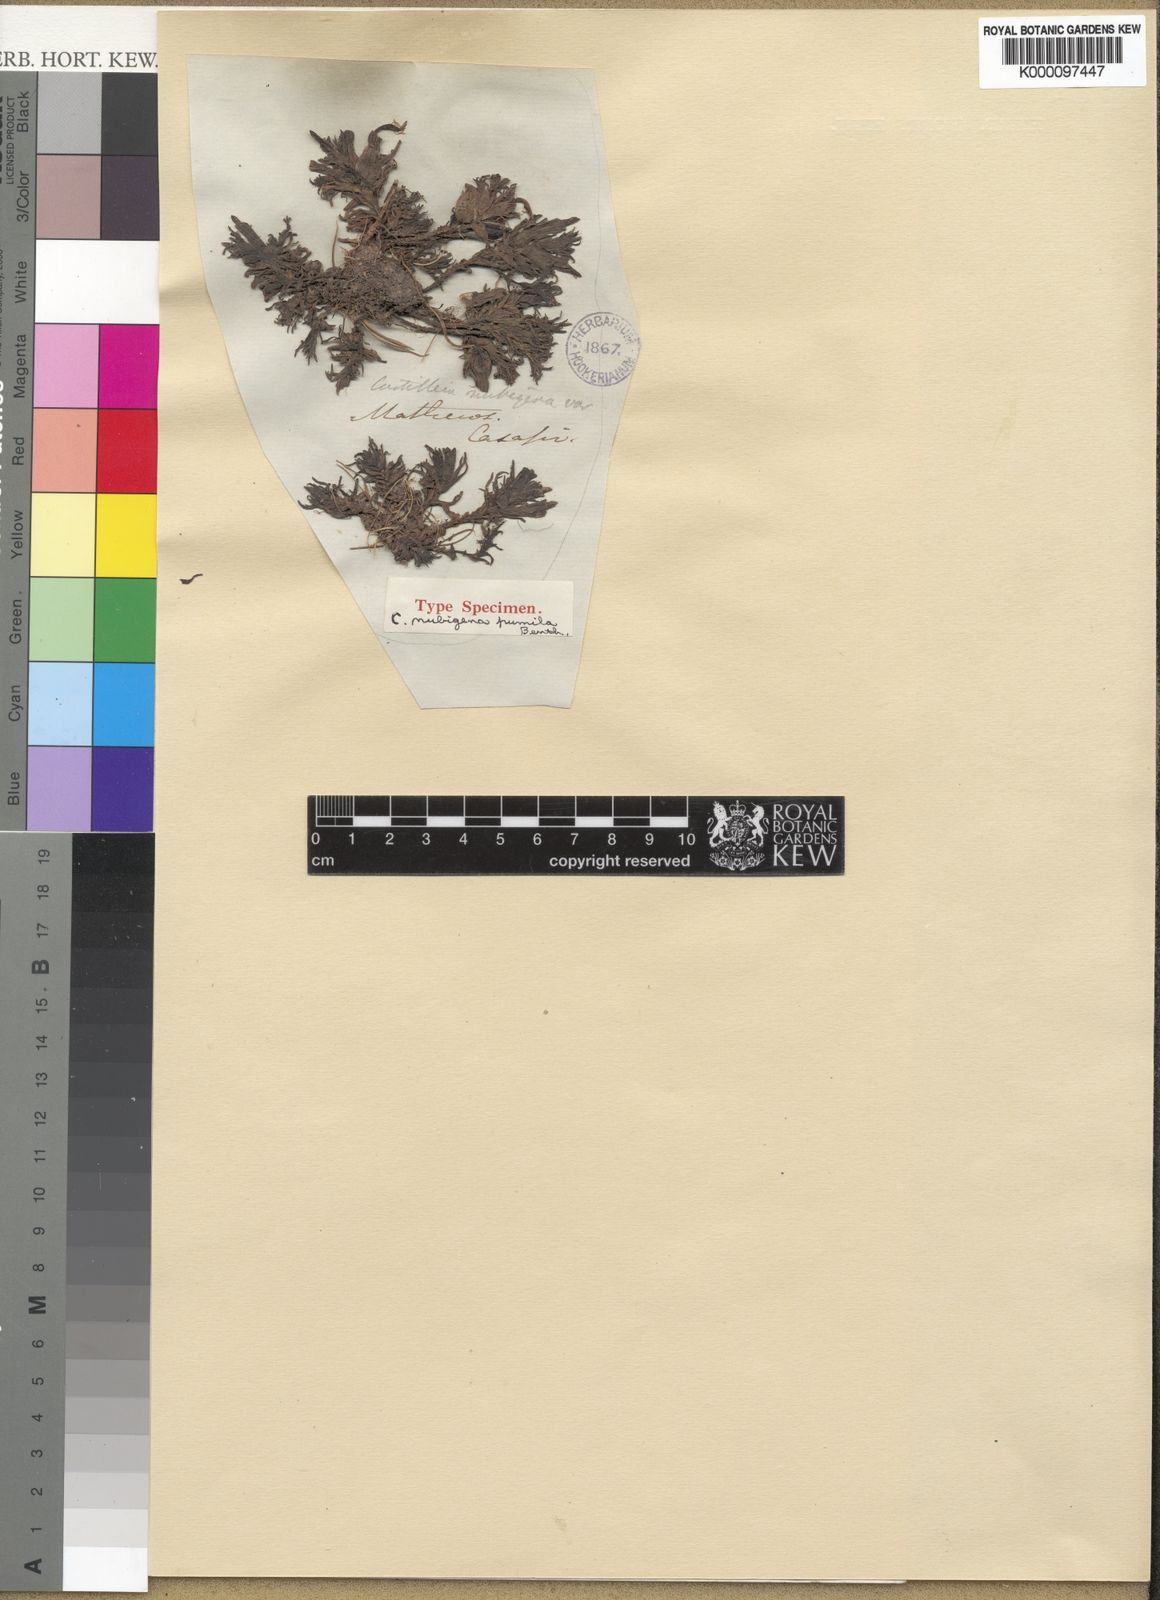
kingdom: Plantae
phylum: Tracheophyta
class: Magnoliopsida
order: Lamiales
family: Orobanchaceae
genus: Castilleja
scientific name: Castilleja
